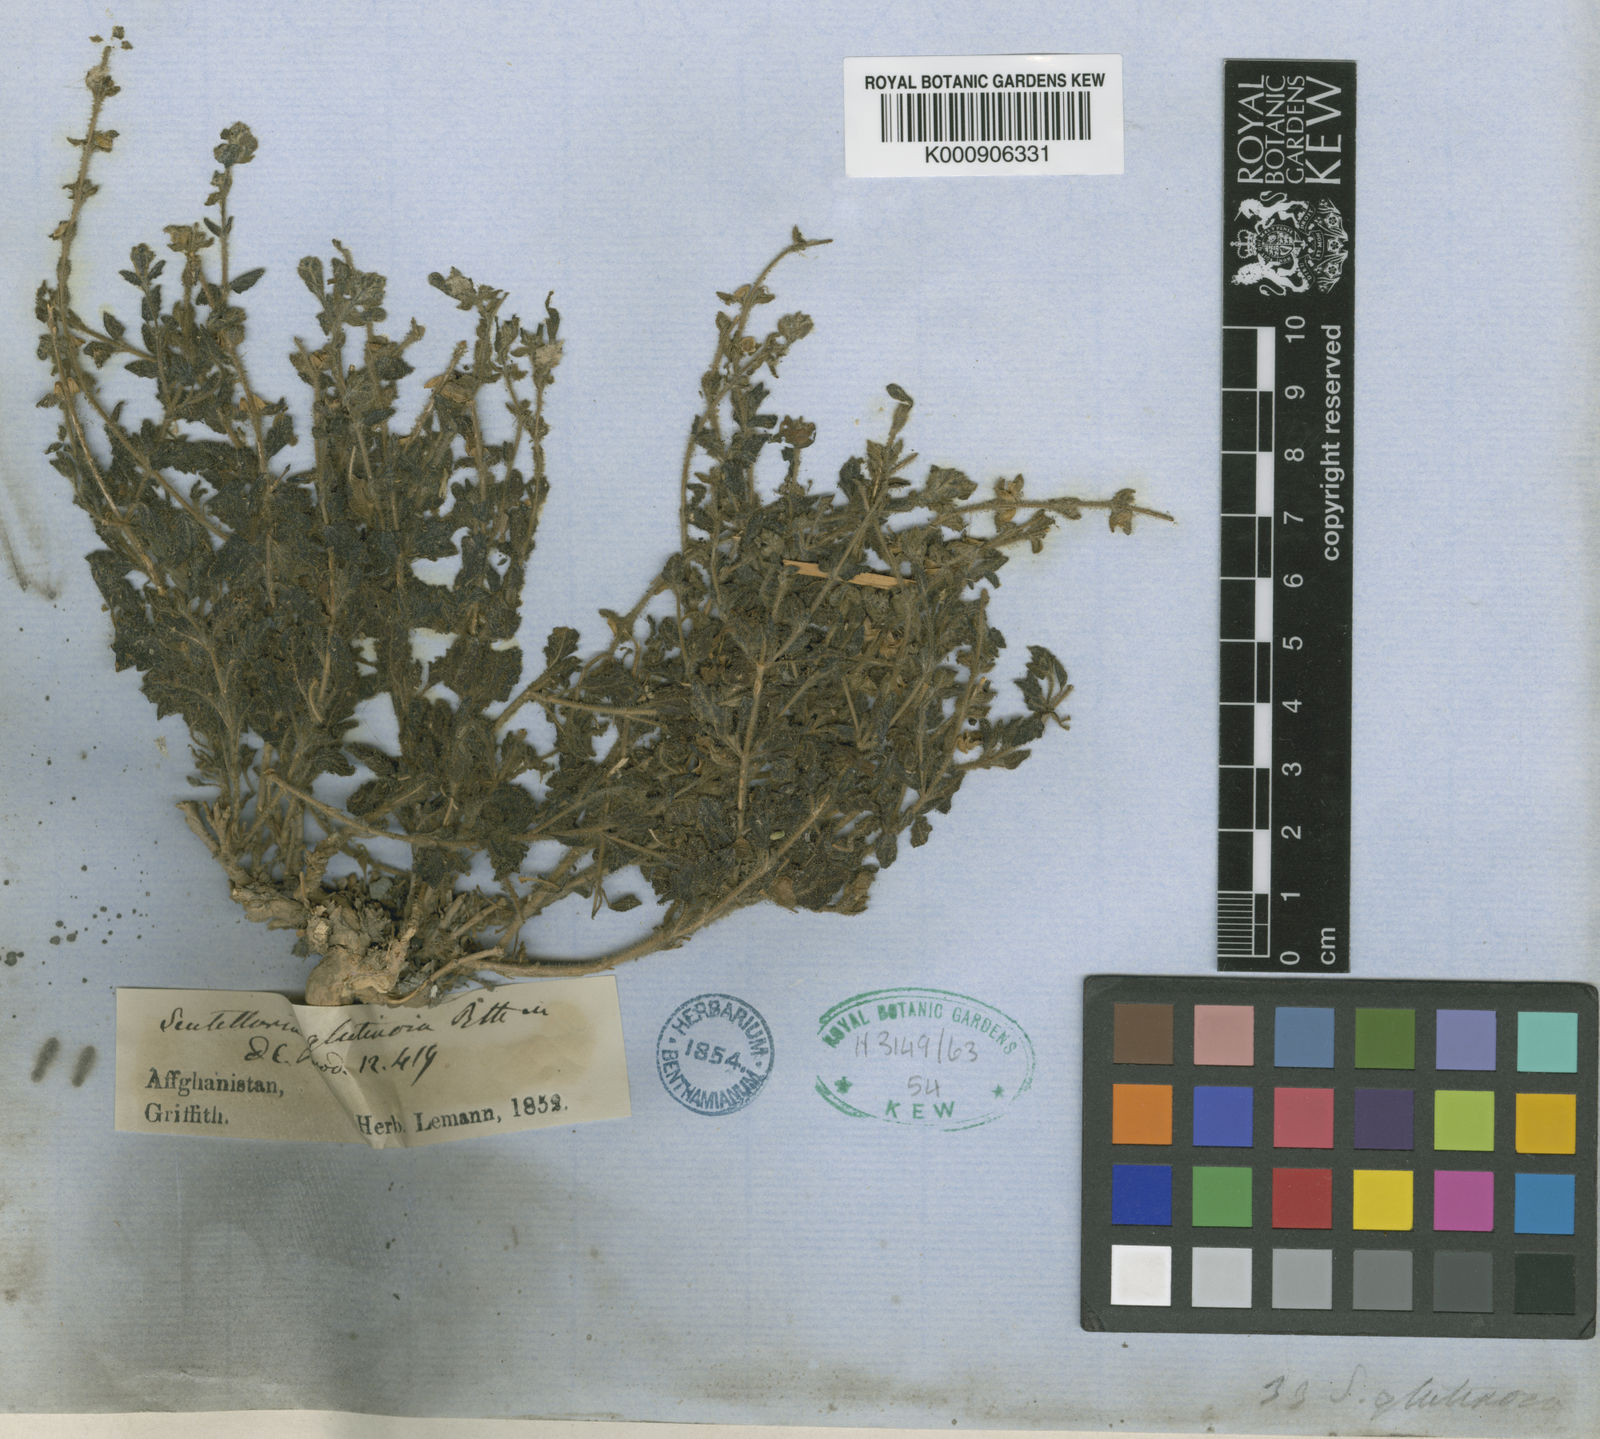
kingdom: Plantae
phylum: Tracheophyta
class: Magnoliopsida
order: Lamiales
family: Lamiaceae
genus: Scutellaria
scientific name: Scutellaria glutinosa
